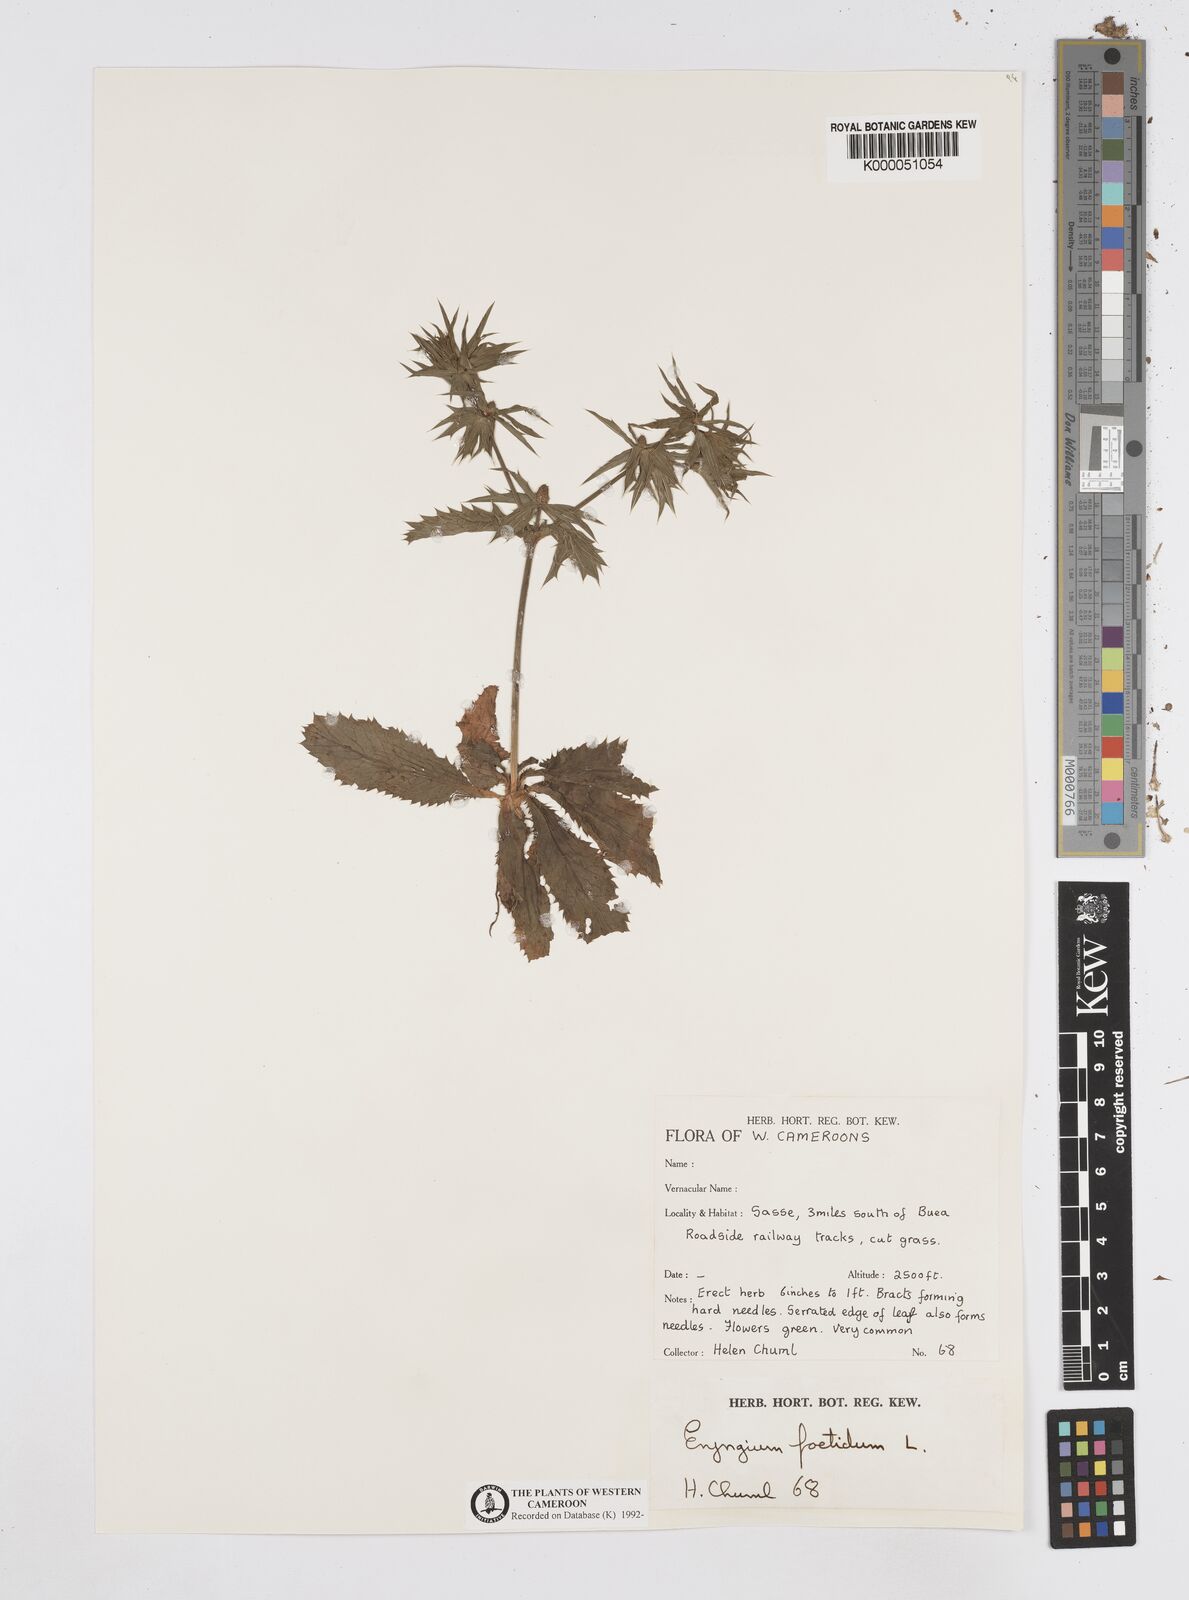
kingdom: Plantae
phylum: Tracheophyta
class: Magnoliopsida
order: Apiales
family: Apiaceae
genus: Eryngium
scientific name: Eryngium foetidum
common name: Fitweed
